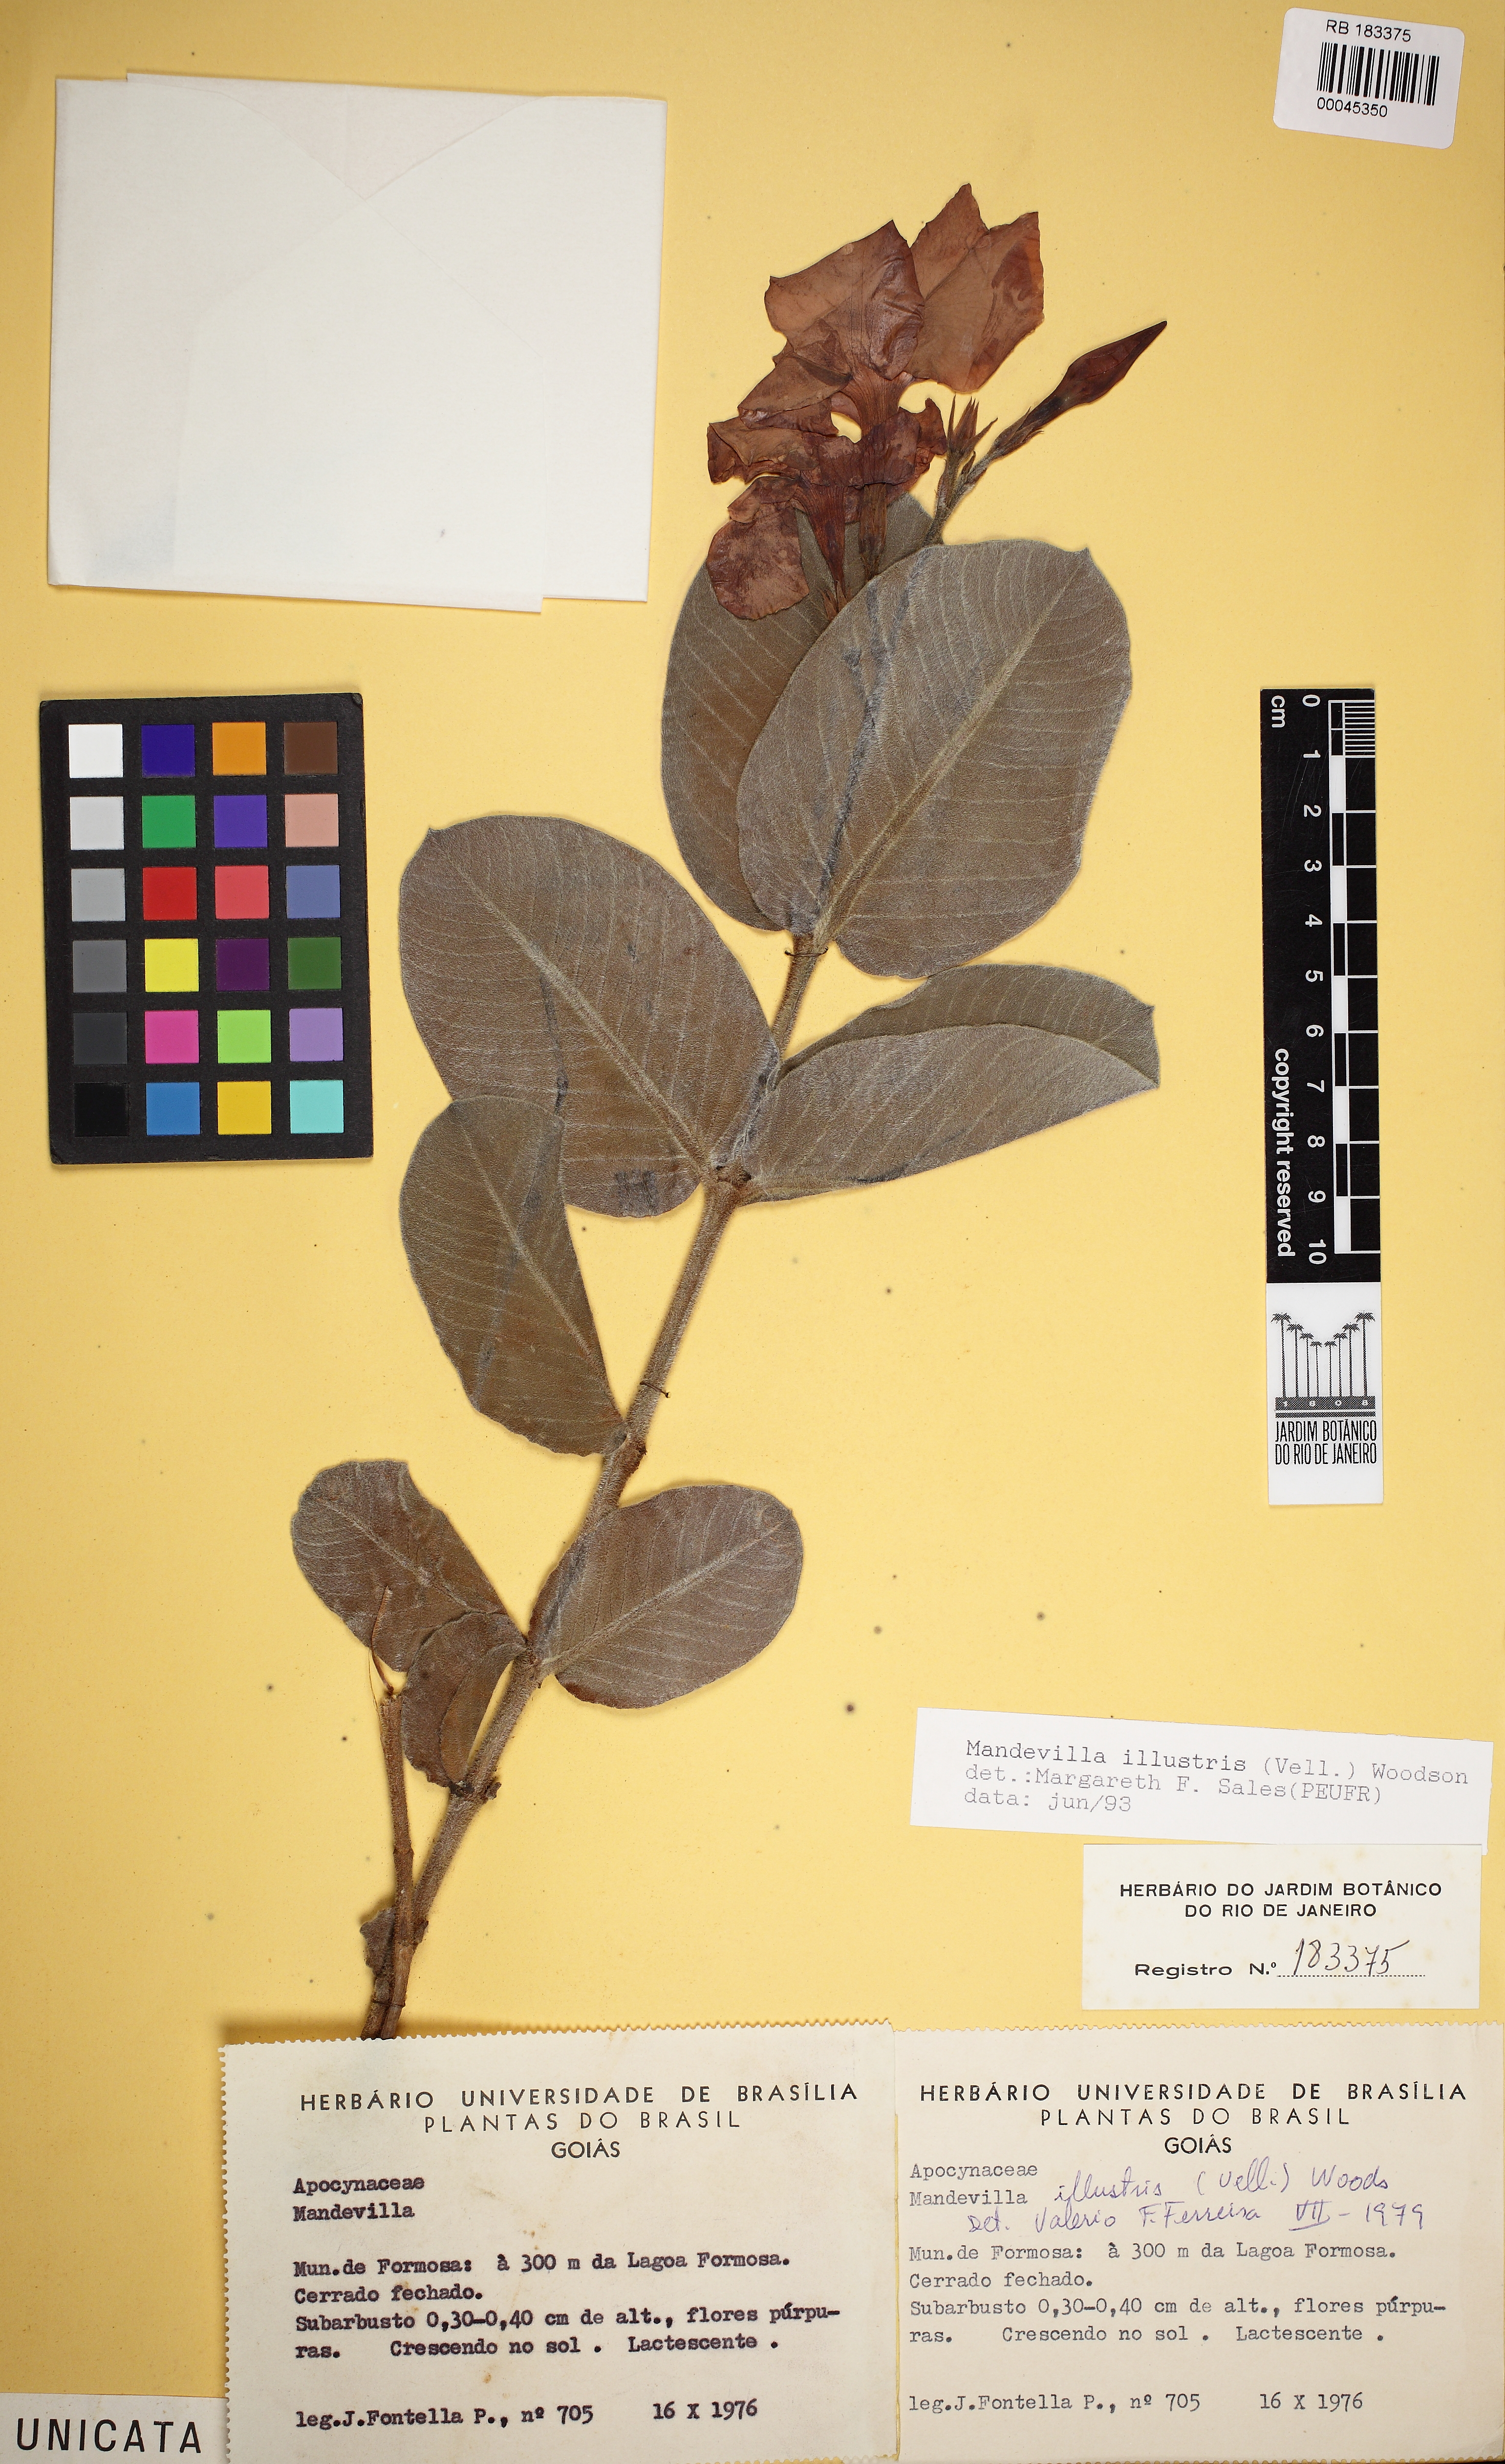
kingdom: Plantae
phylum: Tracheophyta
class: Magnoliopsida
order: Gentianales
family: Apocynaceae
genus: Mandevilla
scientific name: Mandevilla illustris
